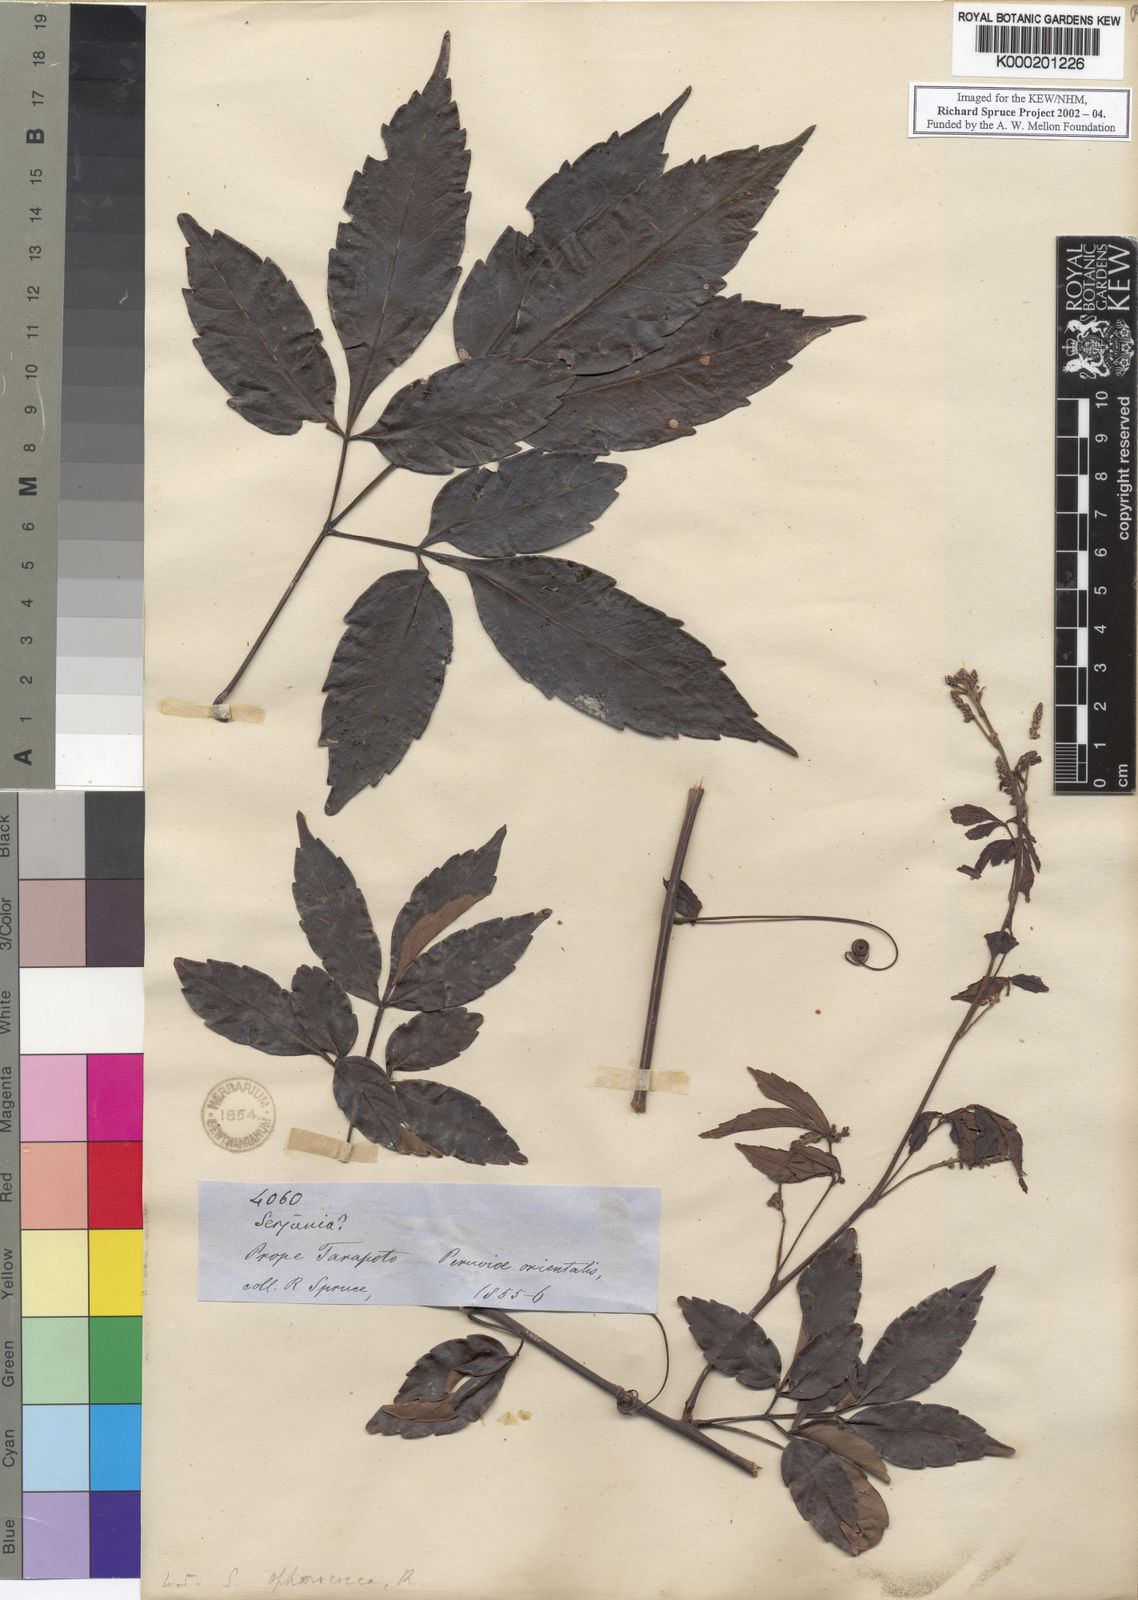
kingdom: Plantae
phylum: Tracheophyta
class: Magnoliopsida
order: Sapindales
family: Sapindaceae
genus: Serjania
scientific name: Serjania sphaerococca
